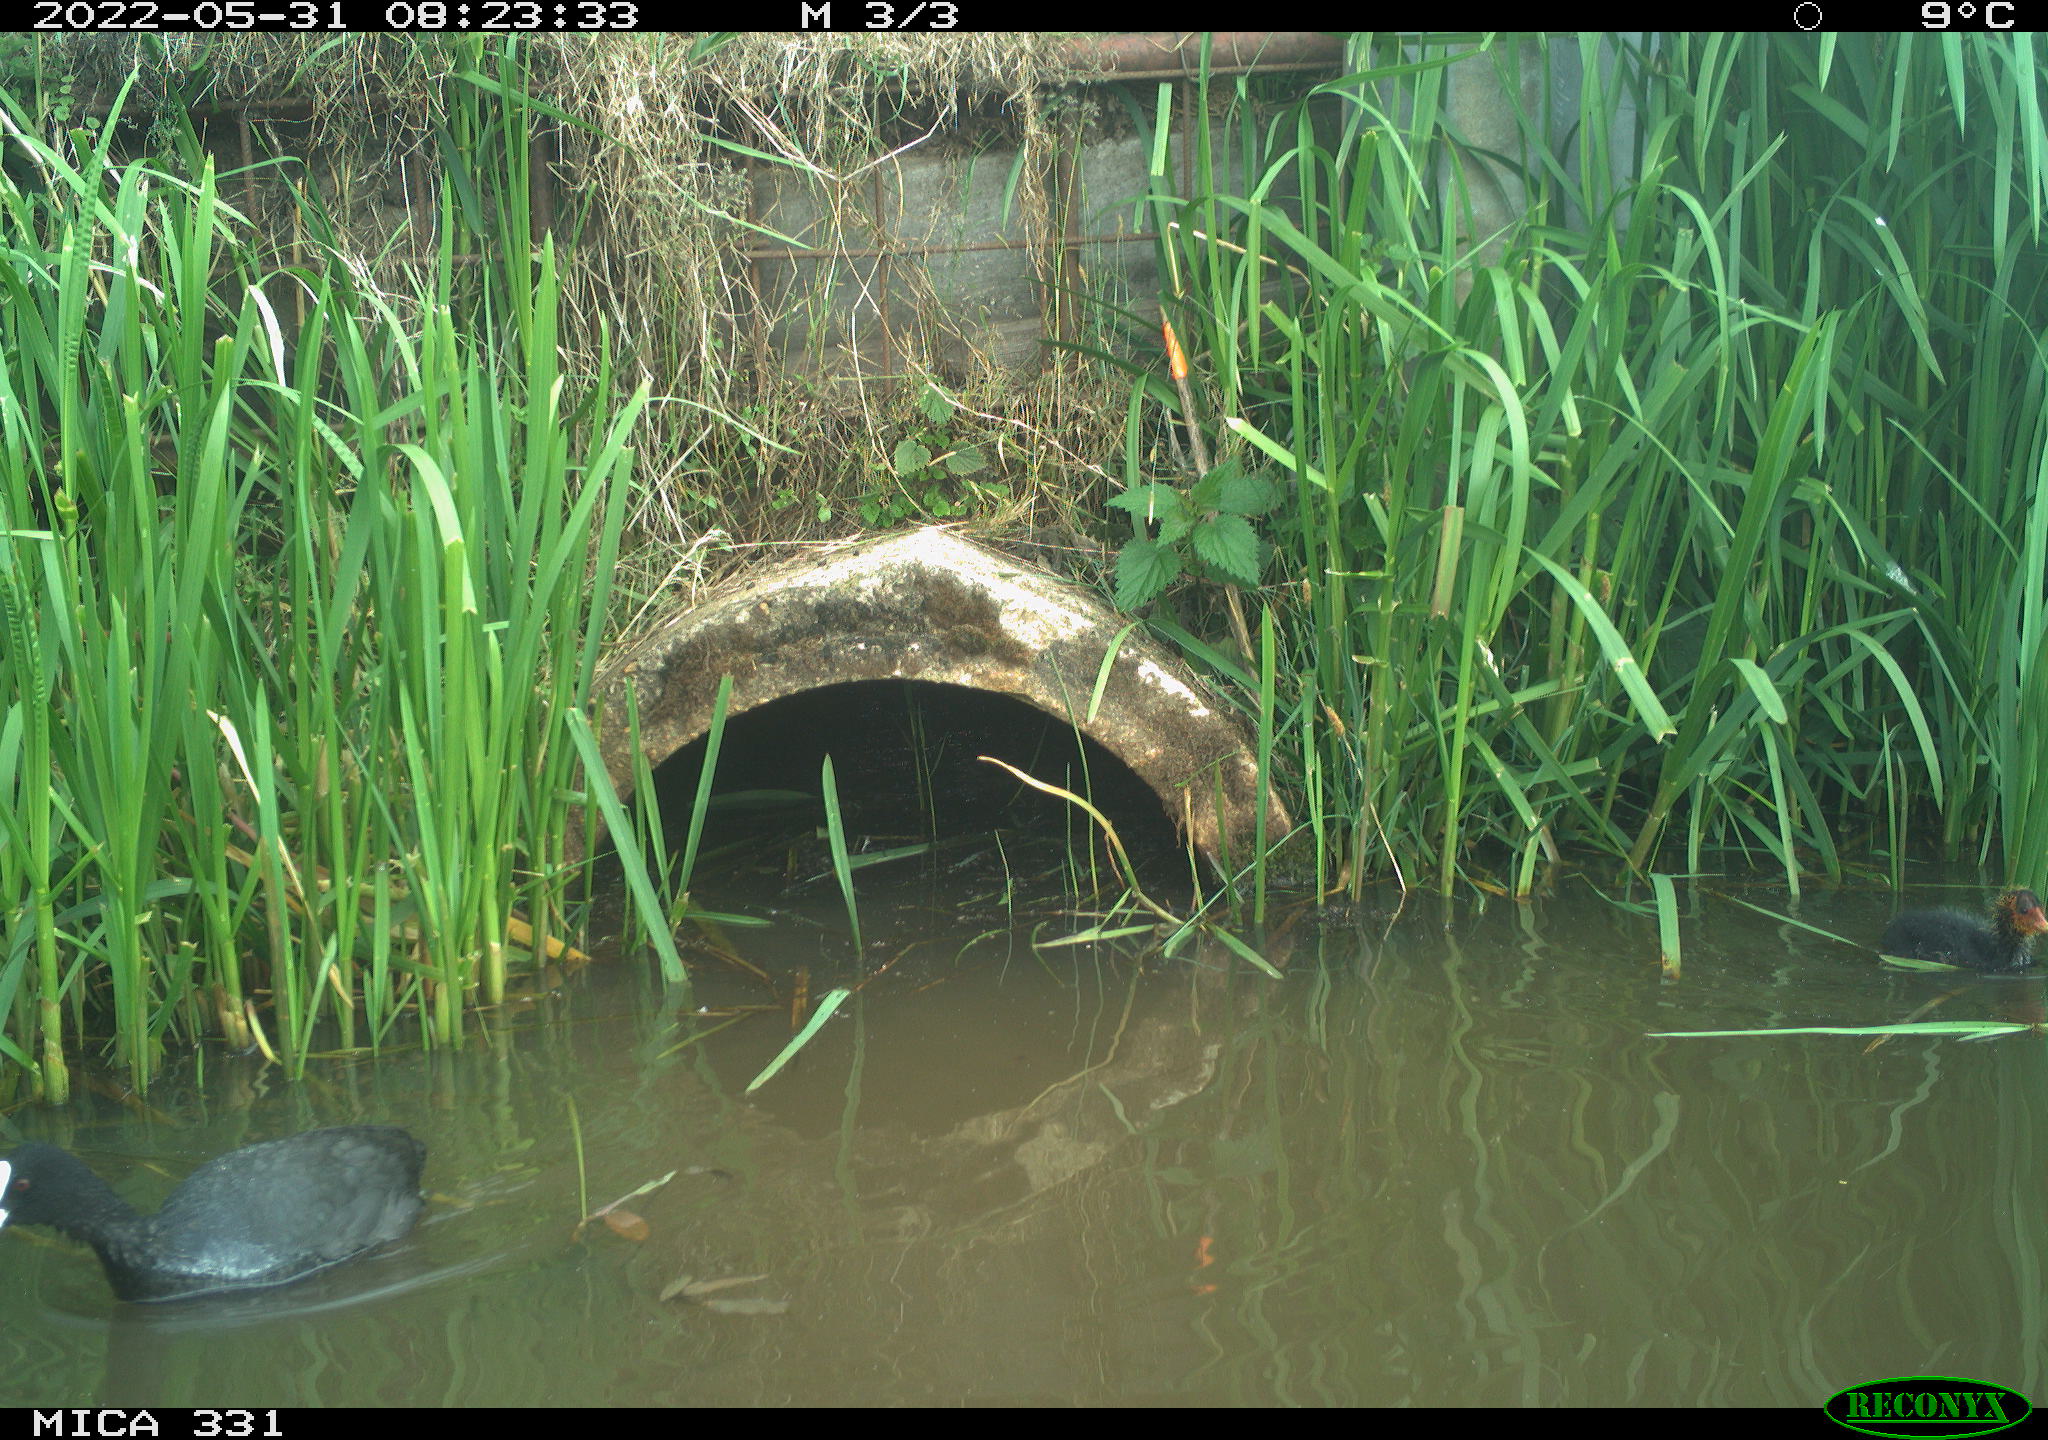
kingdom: Animalia
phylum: Chordata
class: Aves
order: Gruiformes
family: Rallidae
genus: Fulica
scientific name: Fulica atra
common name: Eurasian coot
